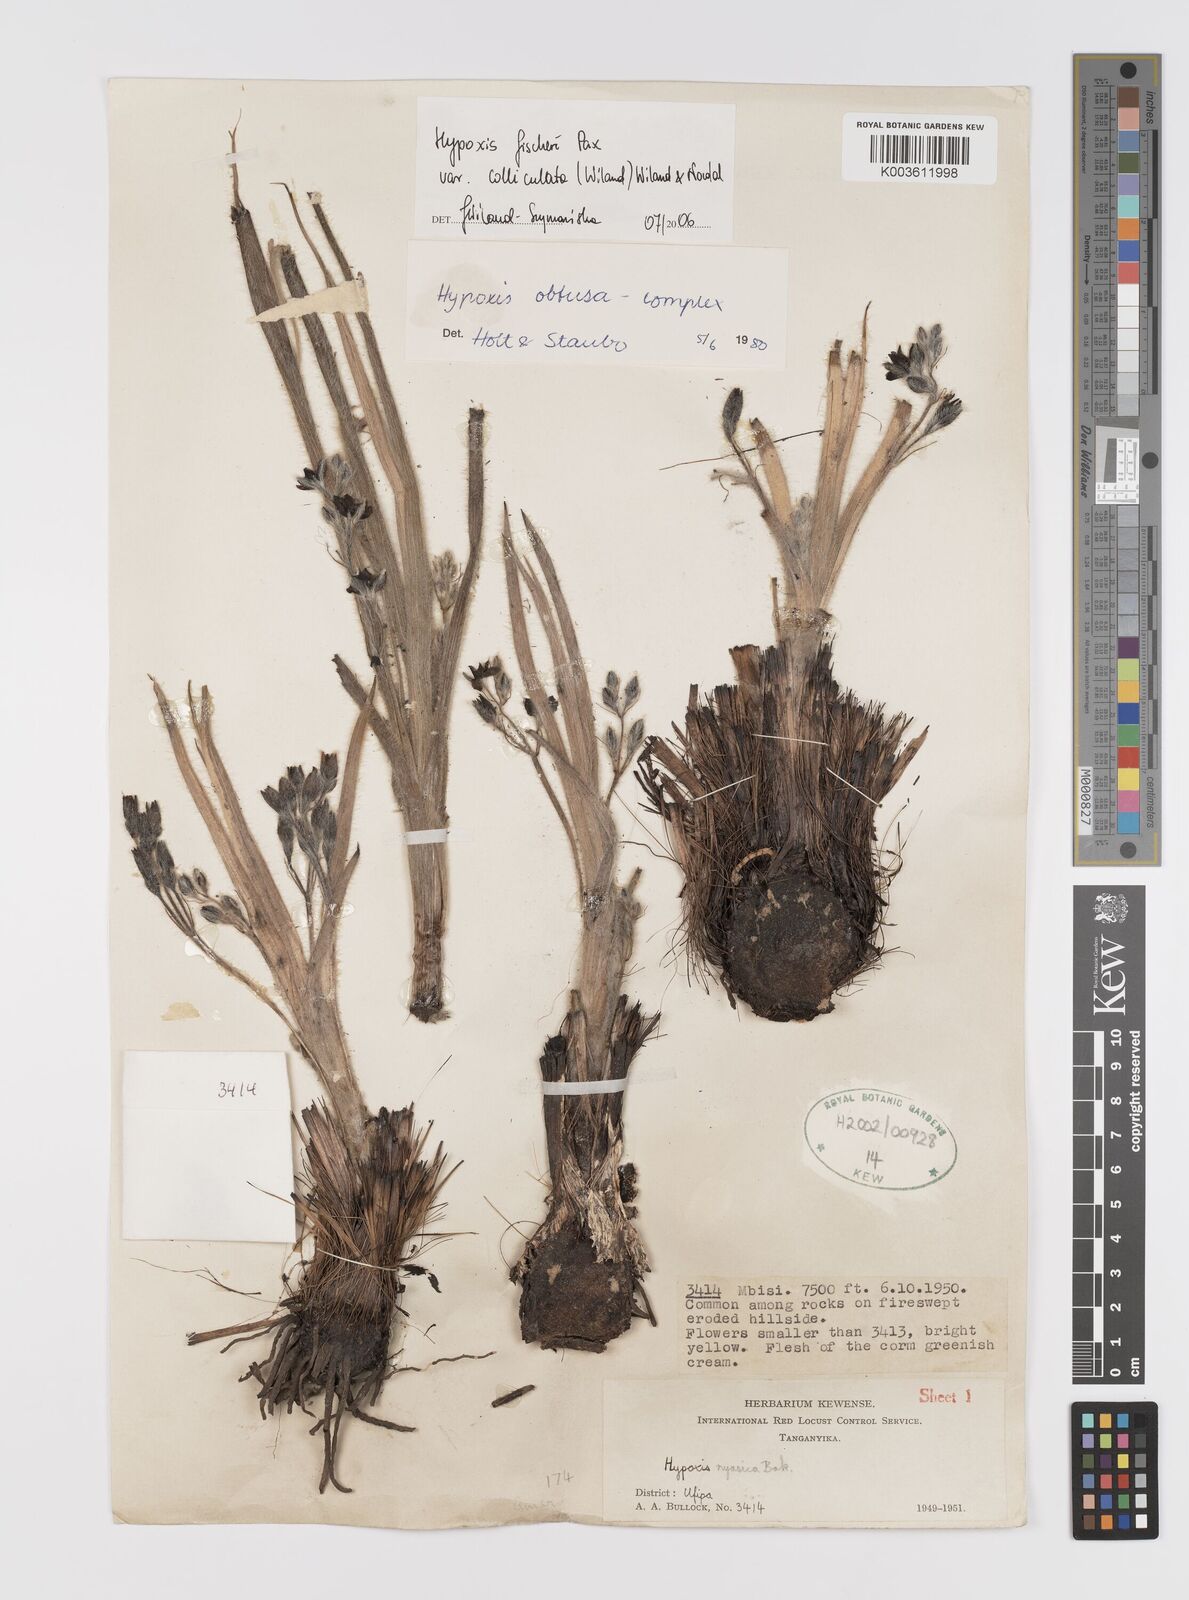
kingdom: Plantae
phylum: Tracheophyta
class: Liliopsida
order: Asparagales
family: Hypoxidaceae
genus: Hypoxis
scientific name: Hypoxis fischeri
